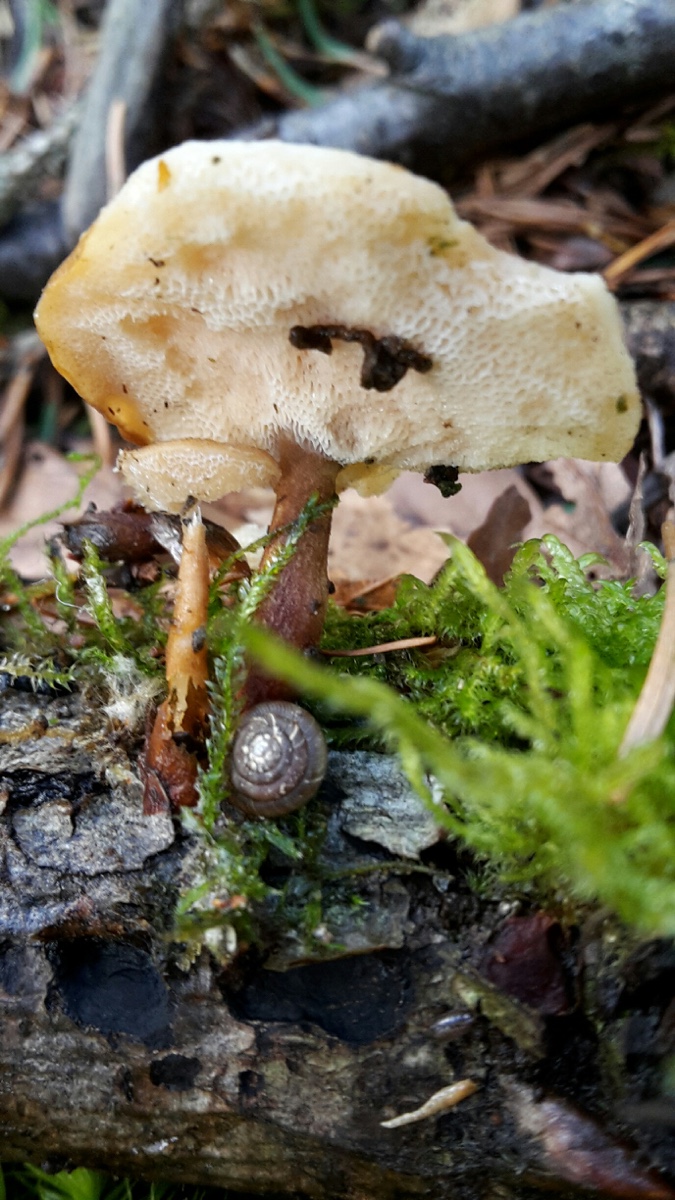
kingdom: Fungi
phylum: Basidiomycota
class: Agaricomycetes
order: Polyporales
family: Polyporaceae
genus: Lentinus
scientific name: Lentinus brumalis
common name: vinter-stilkporesvamp
